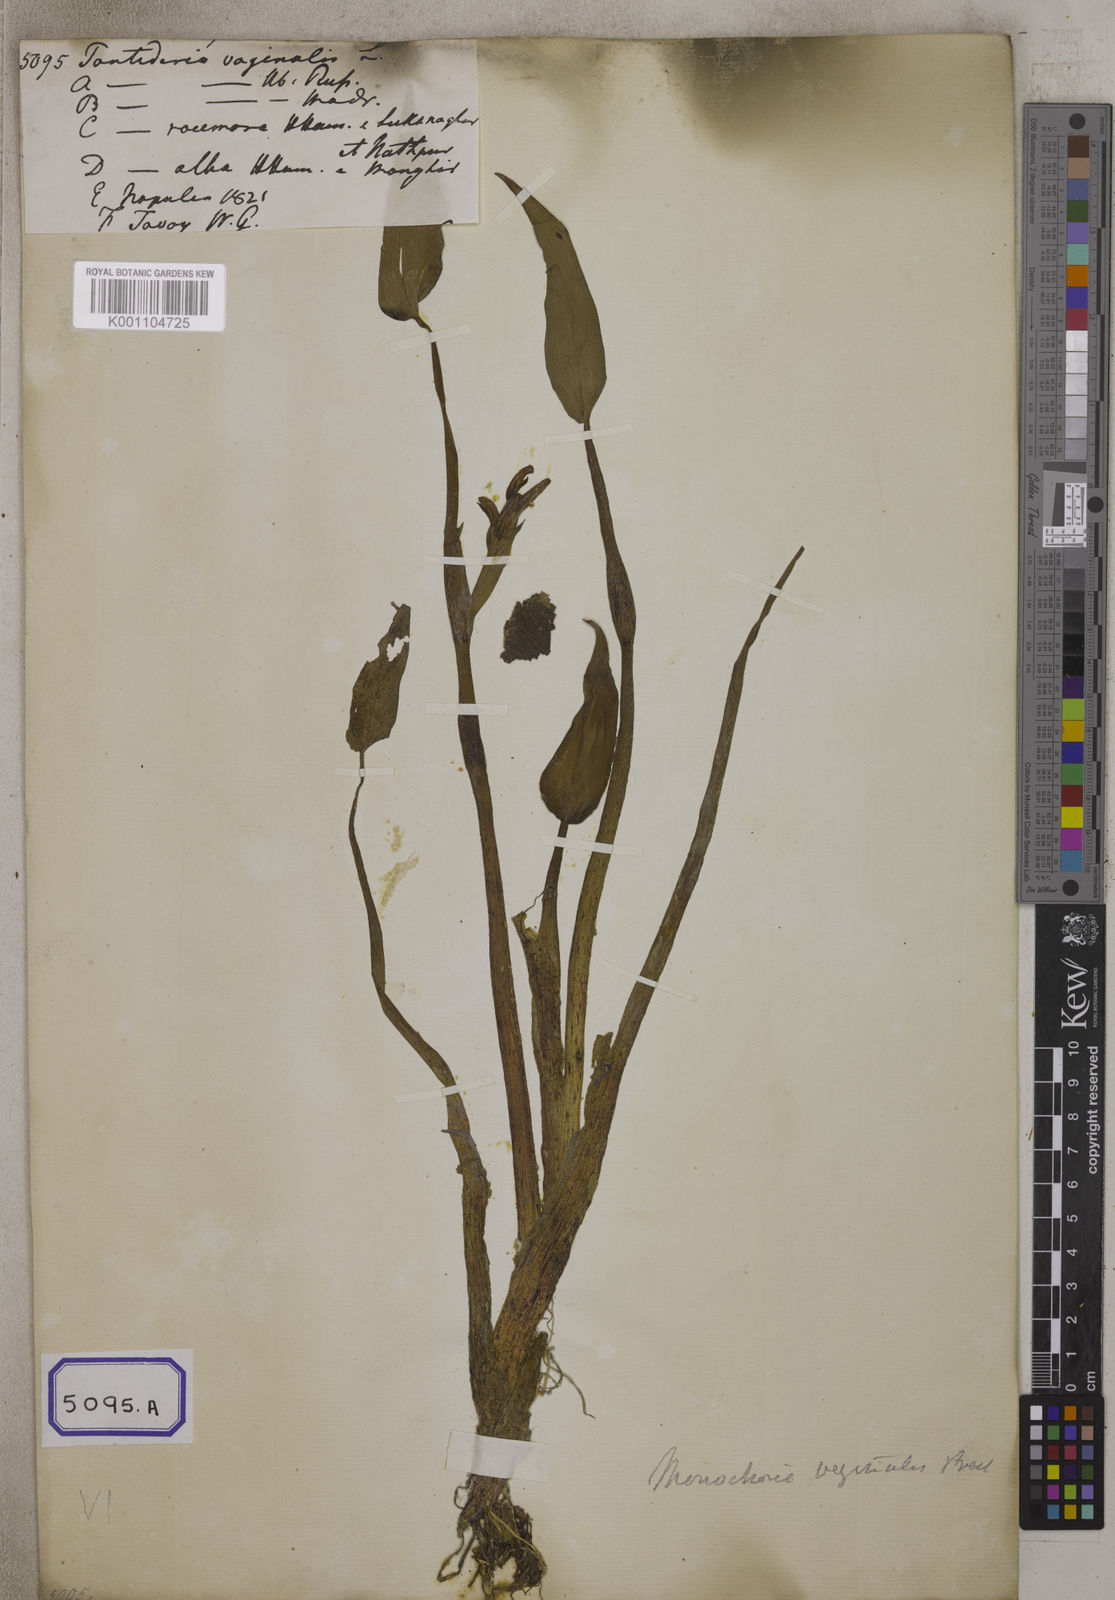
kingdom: Plantae
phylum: Tracheophyta
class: Liliopsida
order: Commelinales
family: Pontederiaceae
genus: Pontederia
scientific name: Pontederia
